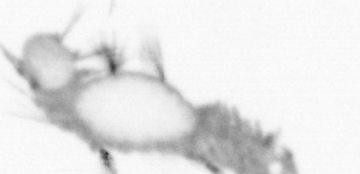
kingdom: Animalia
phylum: Annelida
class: Polychaeta
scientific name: Polychaeta
